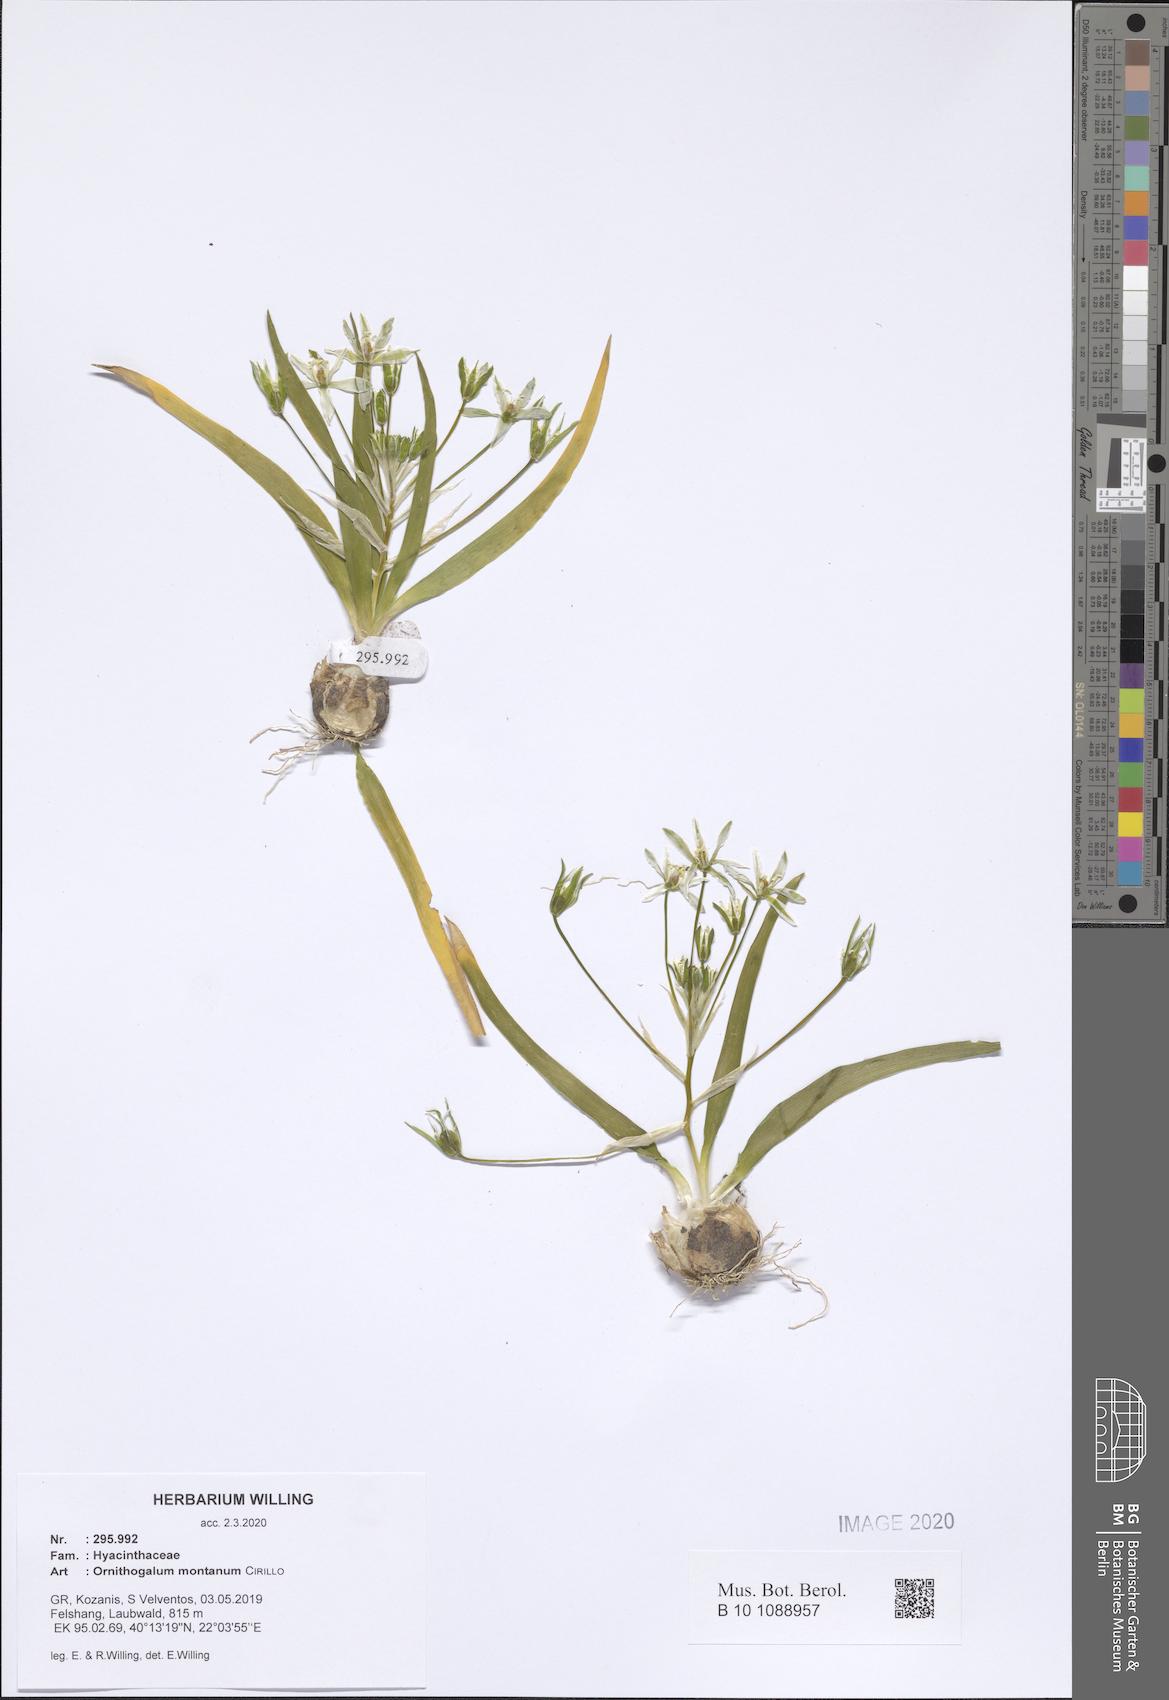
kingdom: Plantae
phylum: Tracheophyta
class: Liliopsida
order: Asparagales
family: Asparagaceae
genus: Ornithogalum
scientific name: Ornithogalum montanum
